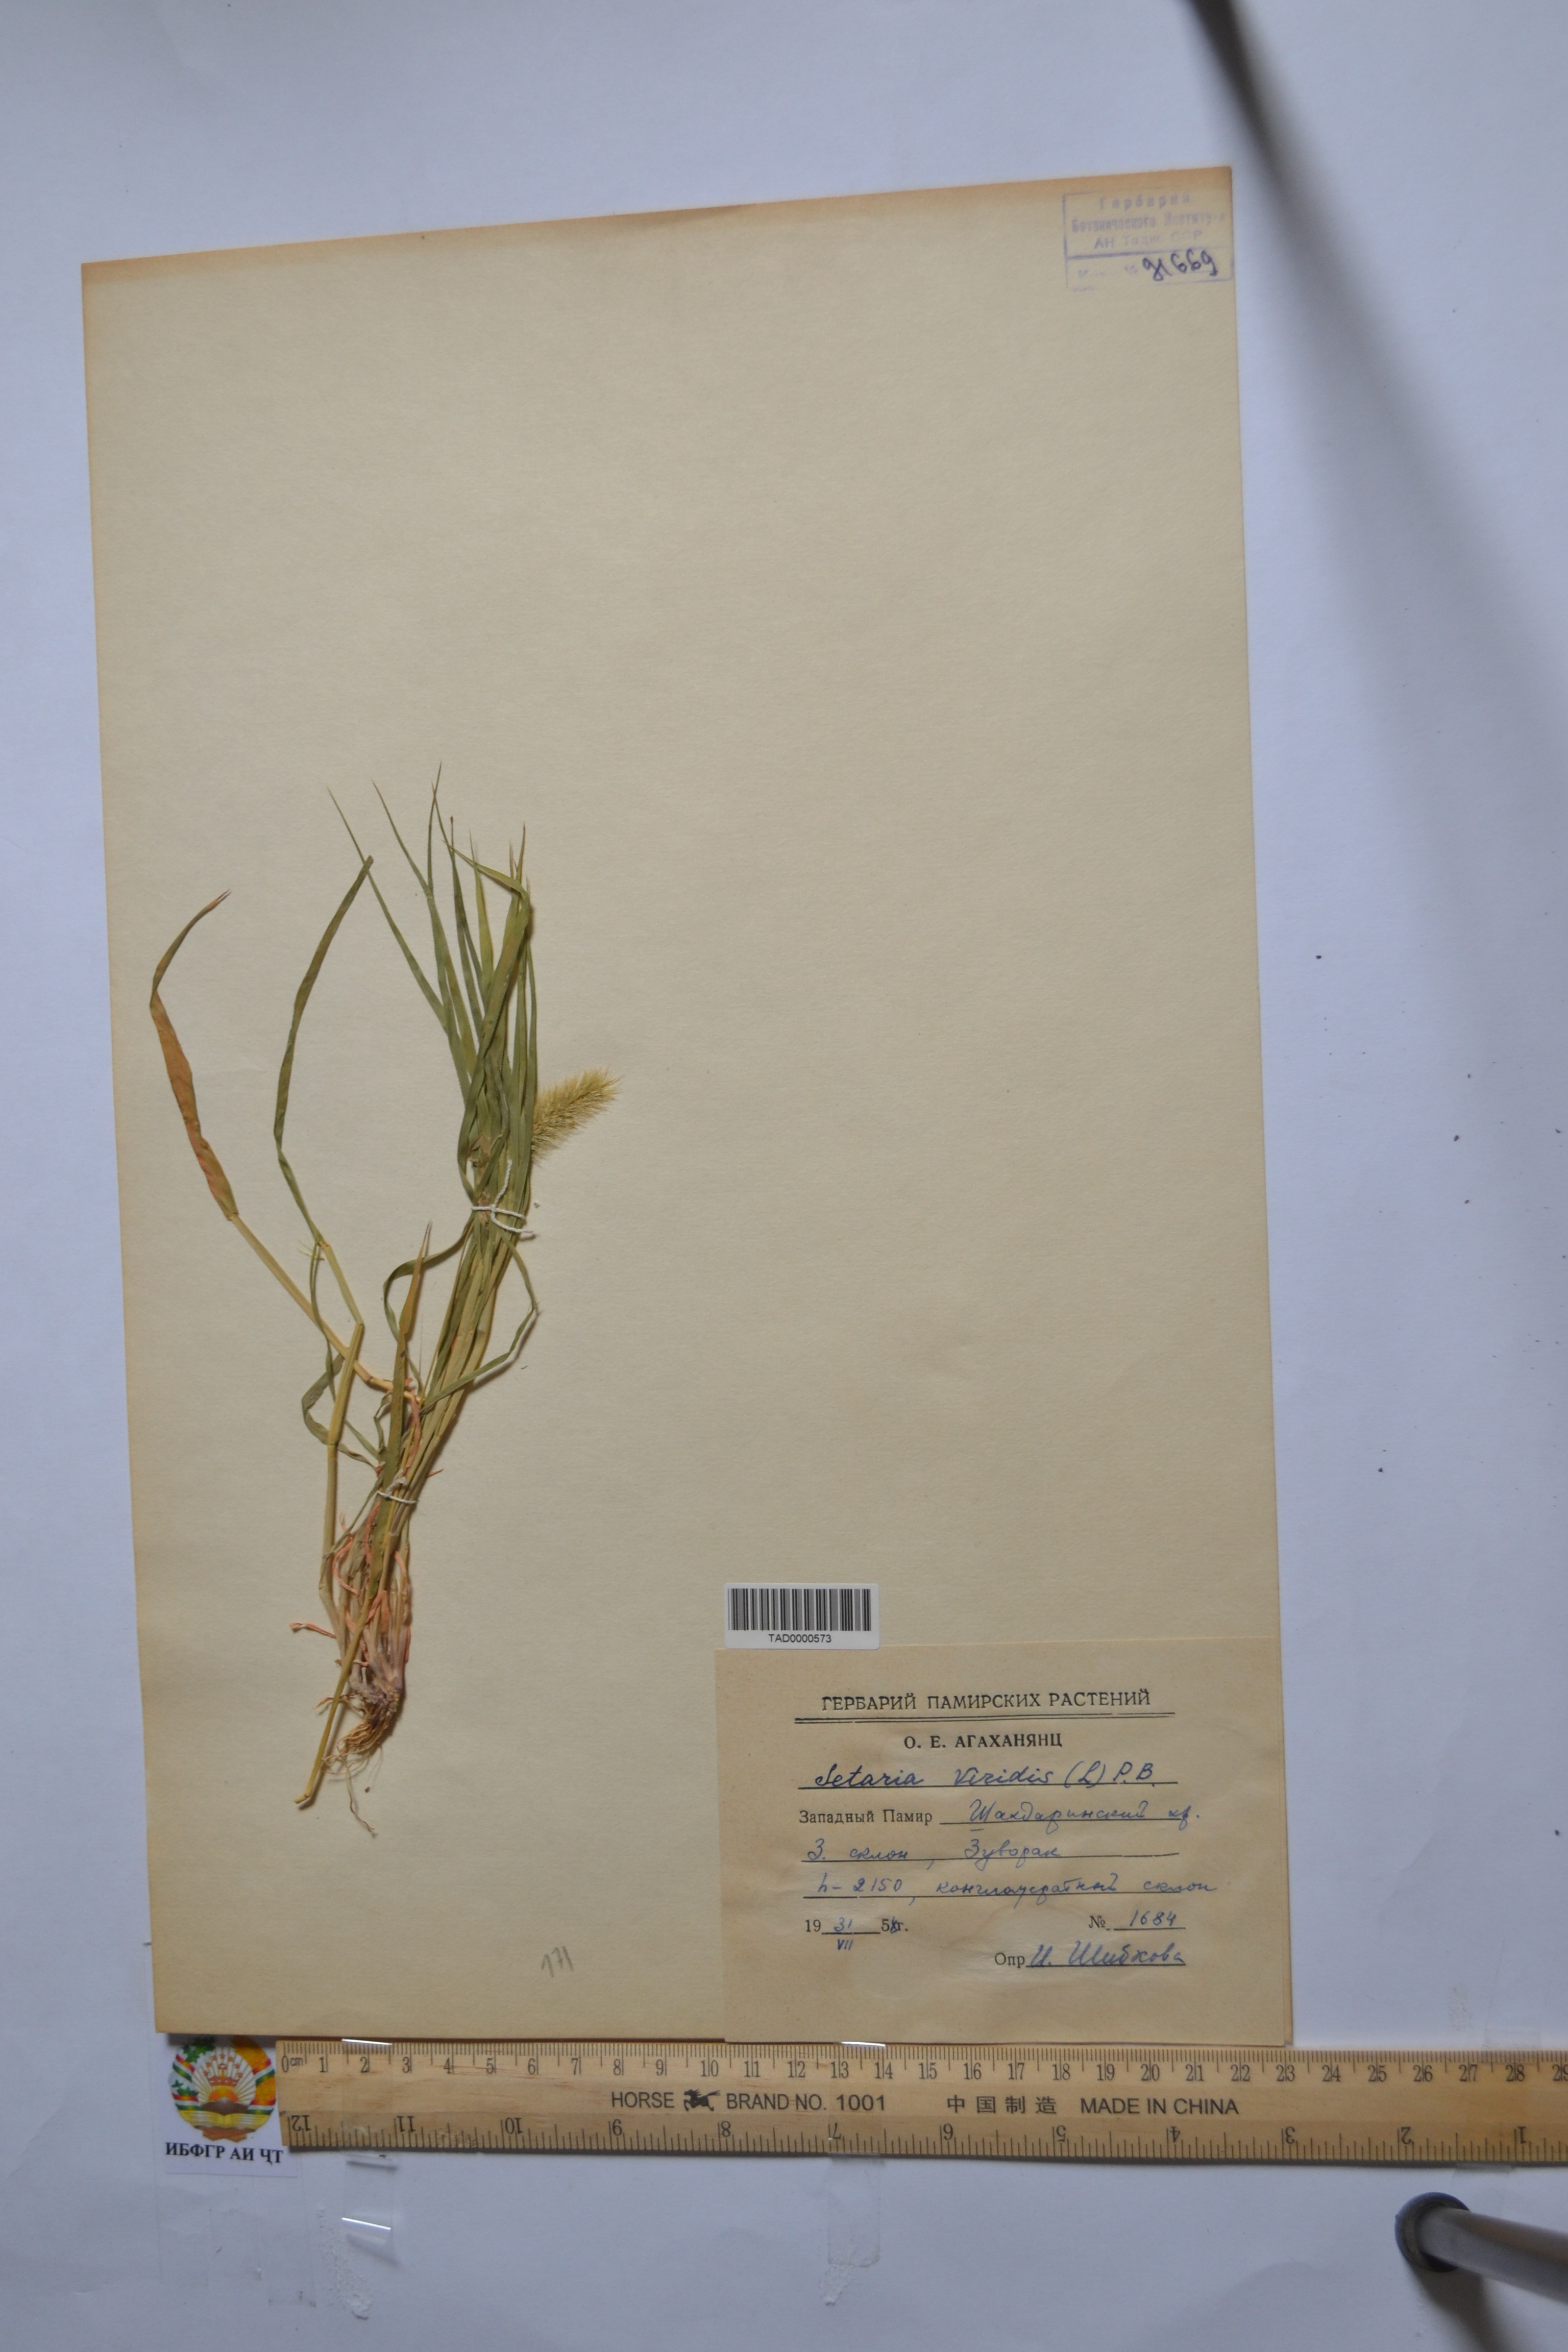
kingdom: Plantae
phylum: Tracheophyta
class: Liliopsida
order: Poales
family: Poaceae
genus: Setaria
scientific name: Setaria viridis
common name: Green bristlegrass
